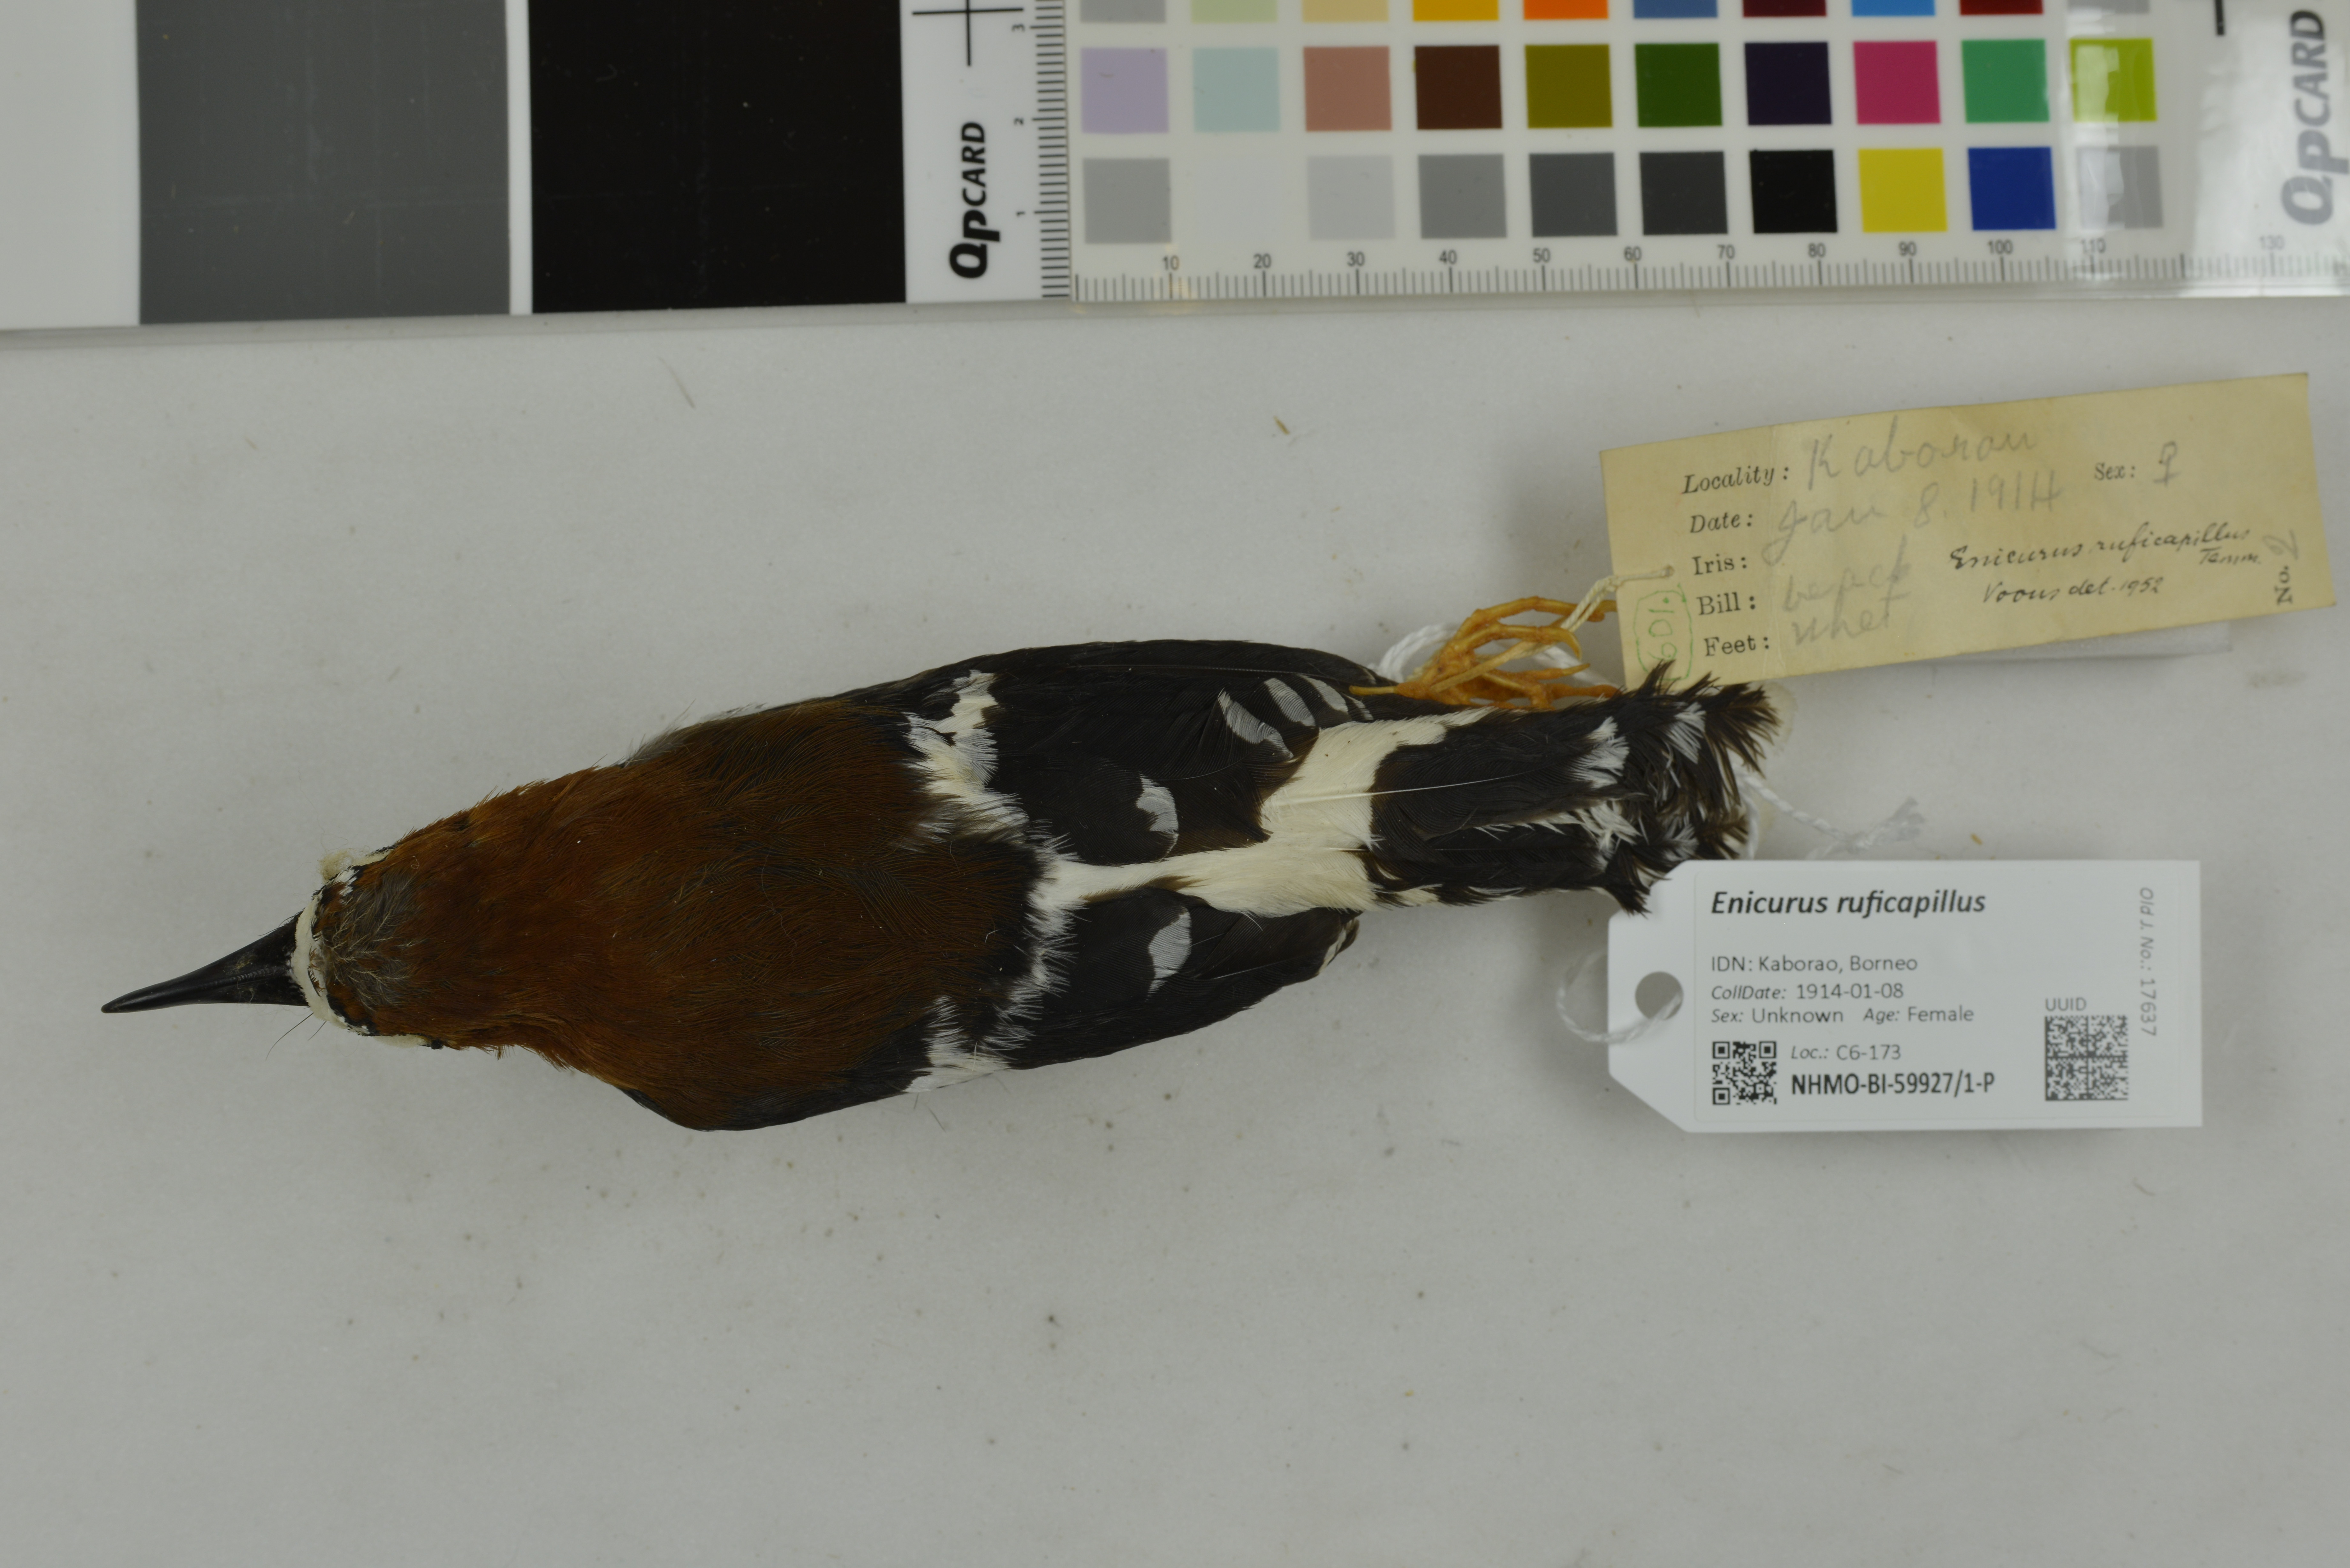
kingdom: Animalia
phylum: Chordata
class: Aves
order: Passeriformes
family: Muscicapidae
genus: Enicurus
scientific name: Enicurus ruficapillus
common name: Chestnut-naped forktail
